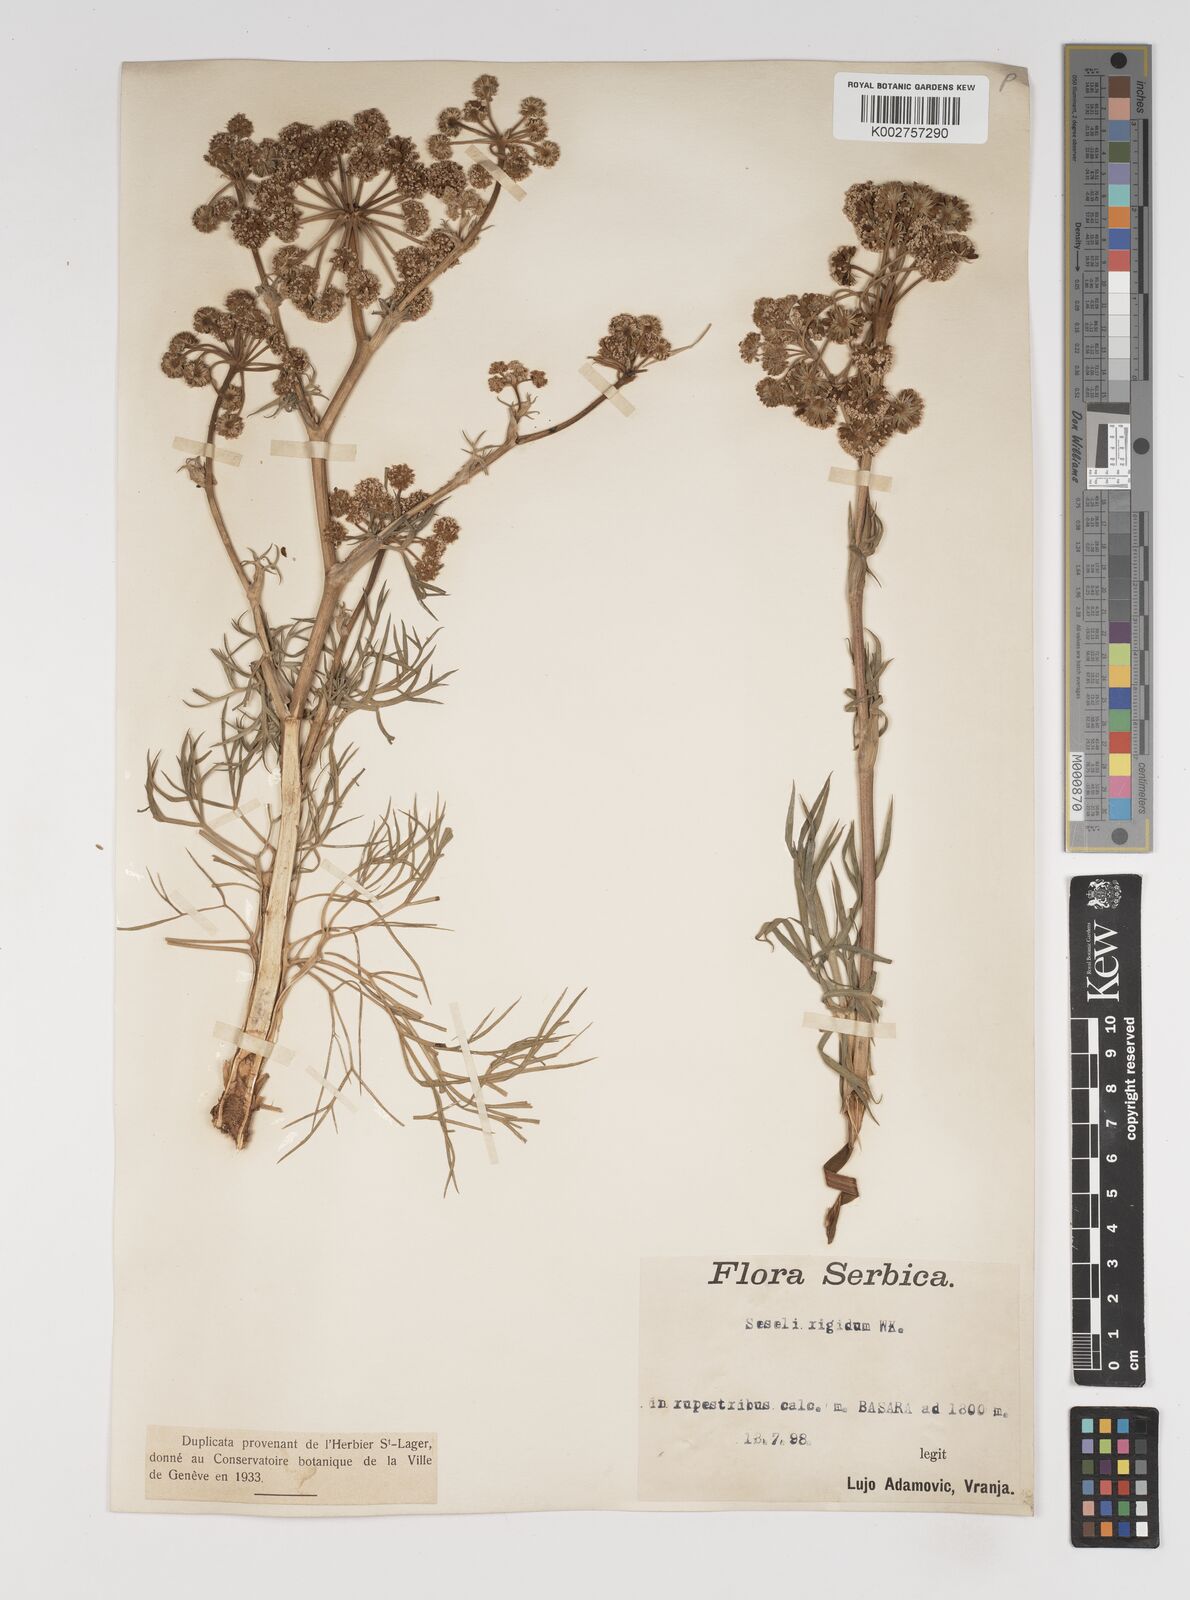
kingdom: Plantae
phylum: Tracheophyta
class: Magnoliopsida
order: Apiales
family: Apiaceae
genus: Seseli
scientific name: Seseli rigidum
